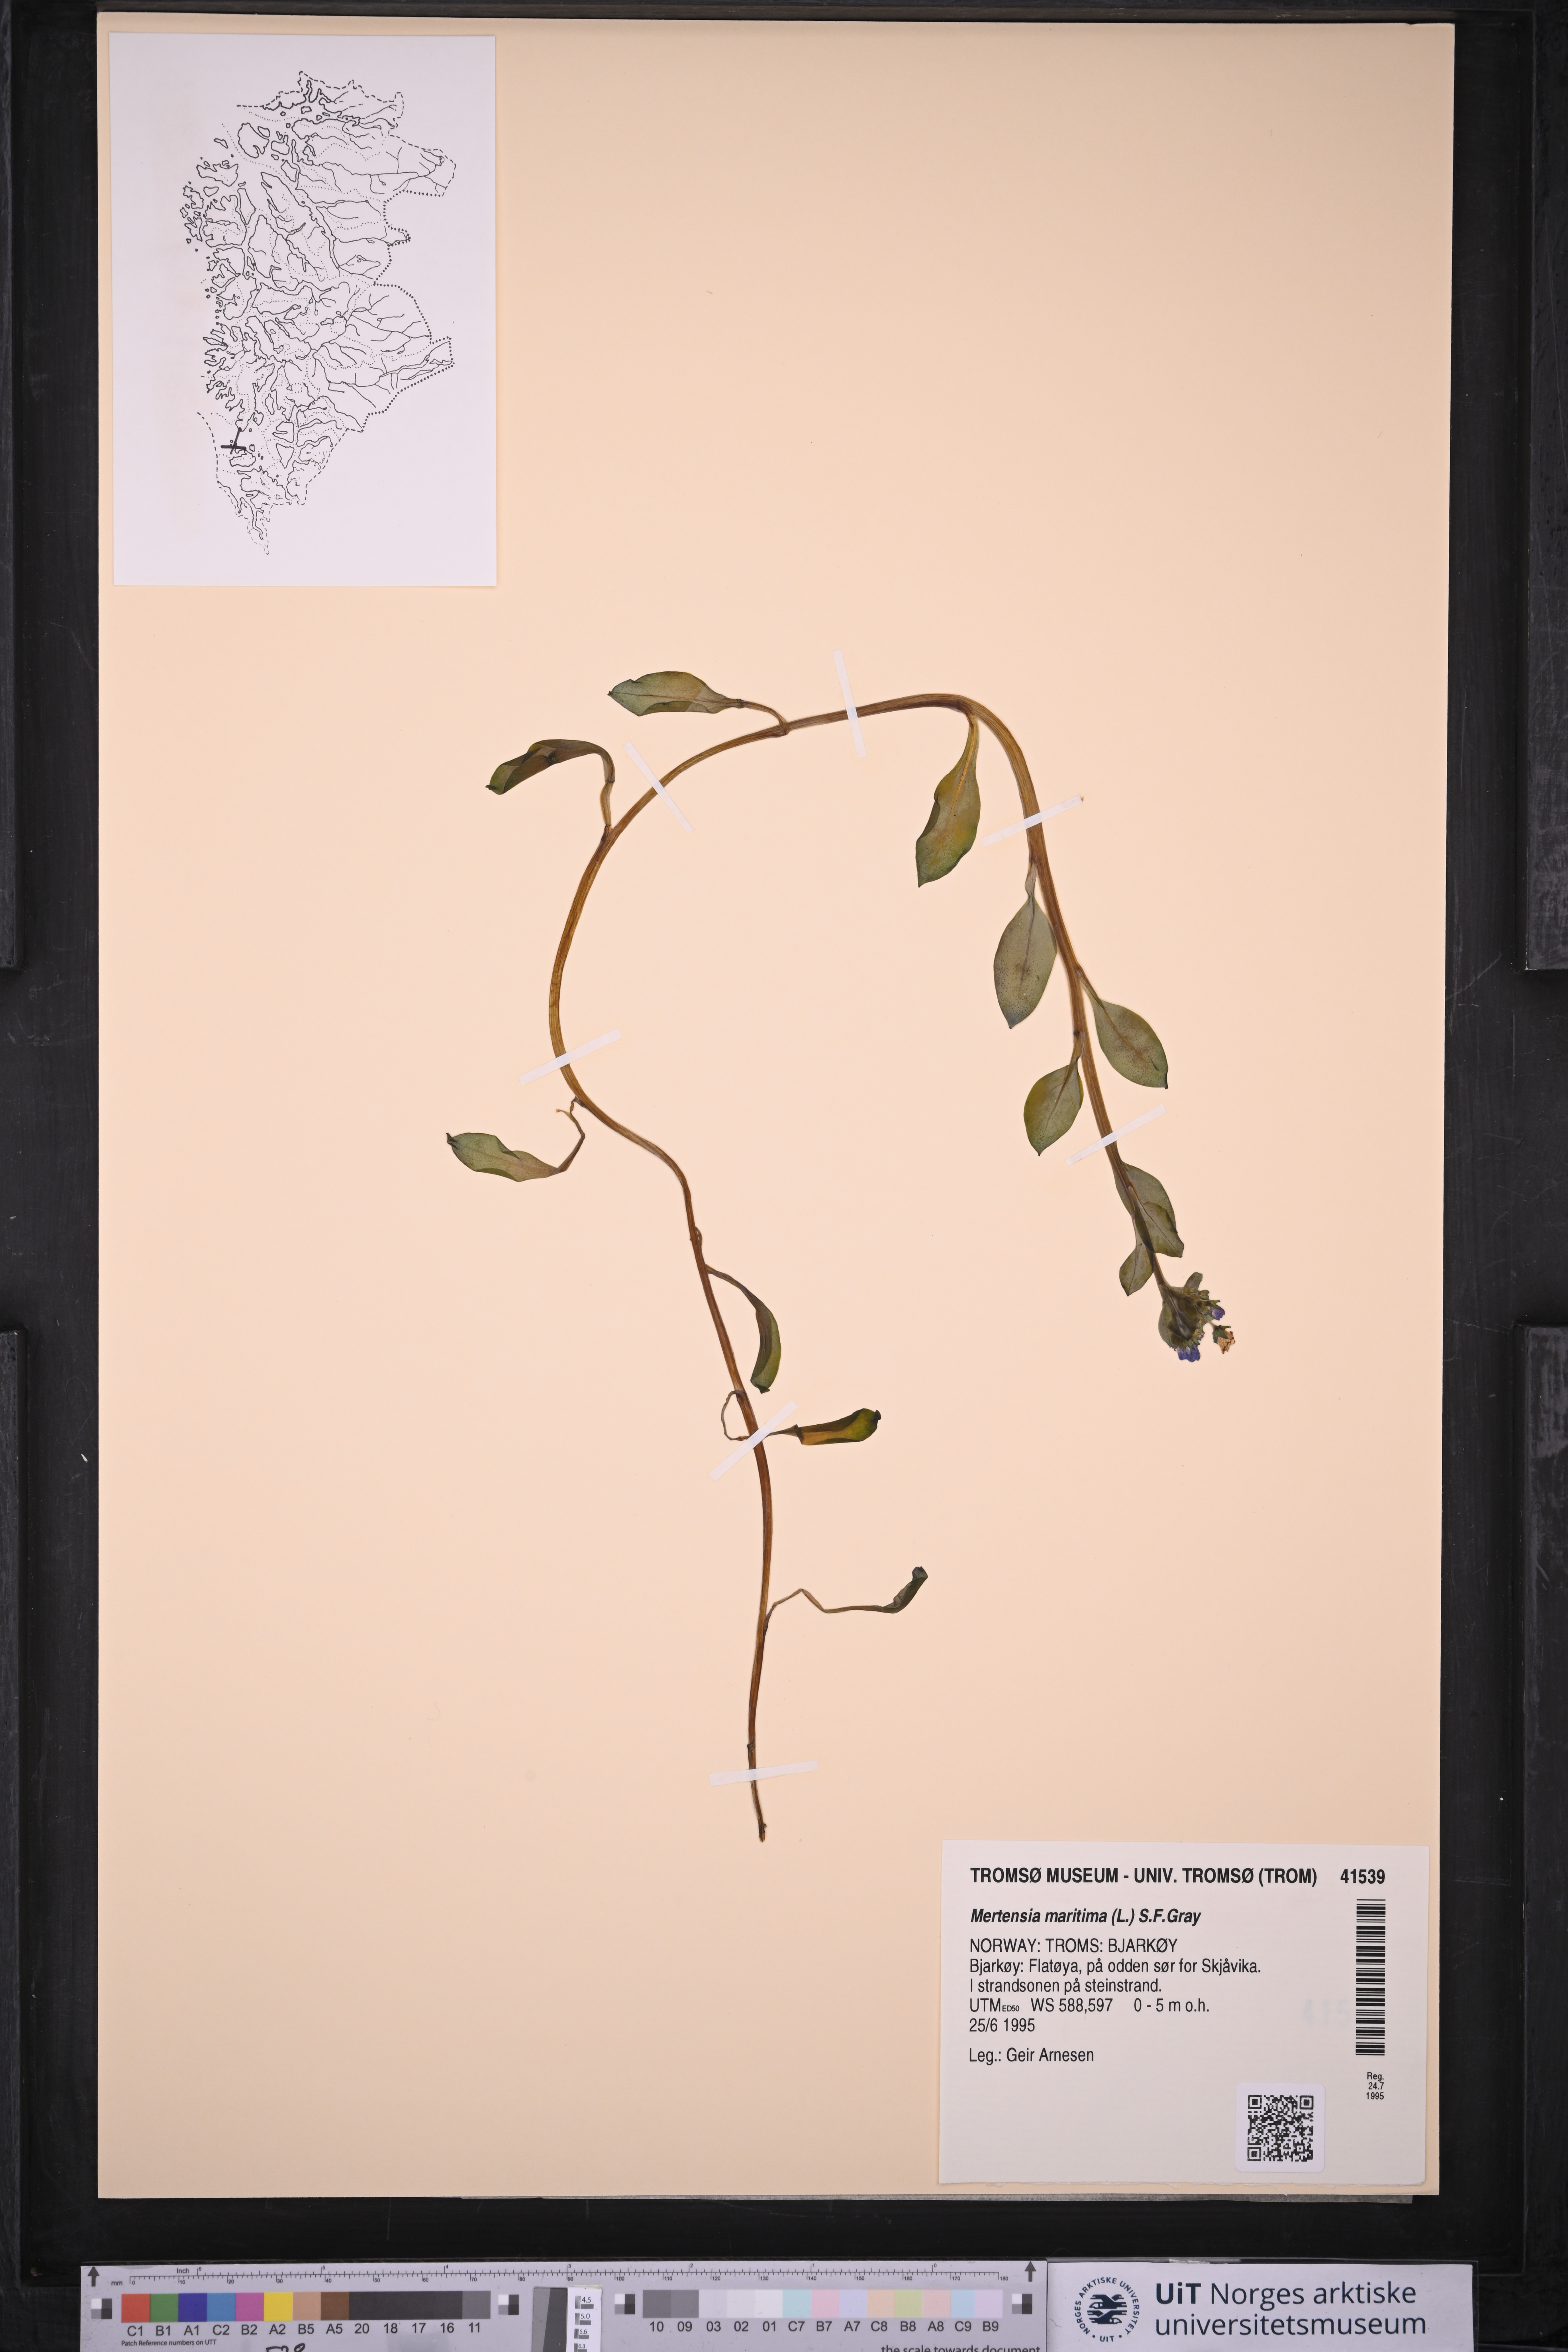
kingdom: Plantae
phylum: Tracheophyta
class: Magnoliopsida
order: Boraginales
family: Boraginaceae
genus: Mertensia
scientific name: Mertensia maritima
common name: Oysterplant
